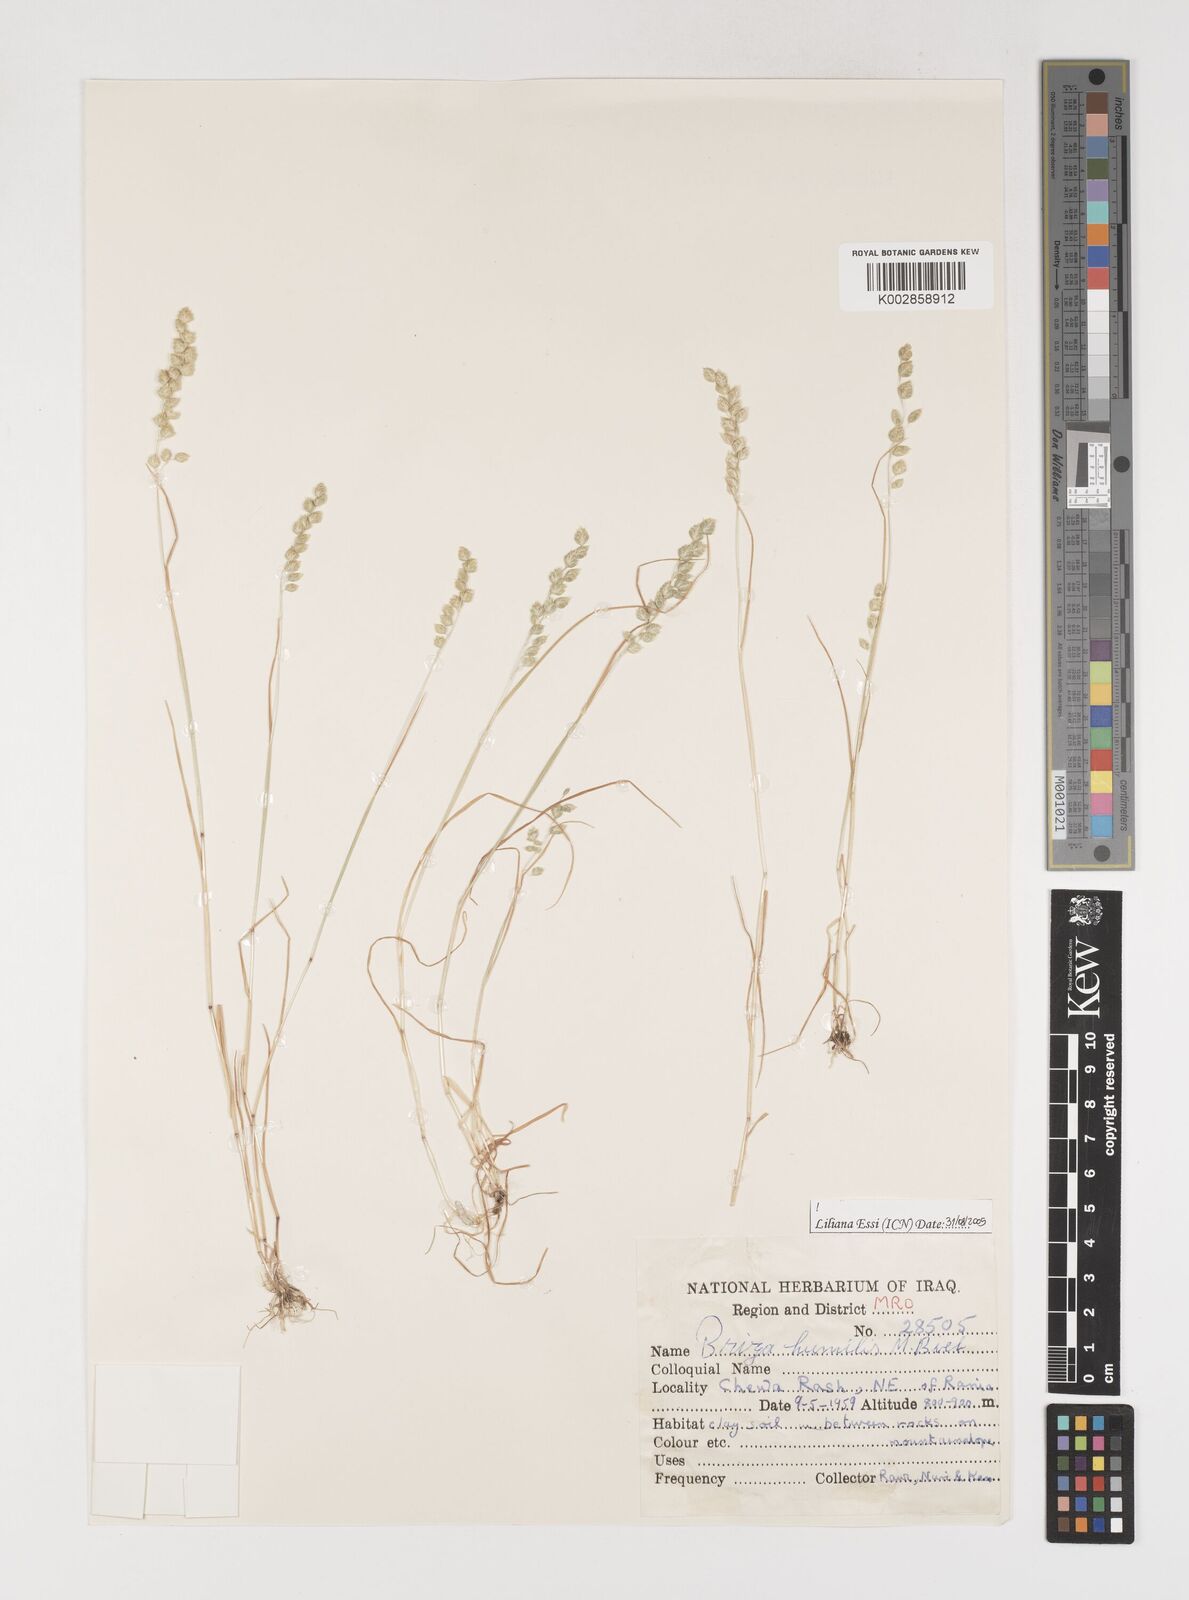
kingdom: Plantae
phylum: Tracheophyta
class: Liliopsida
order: Poales
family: Poaceae
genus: Briza
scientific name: Briza humilis
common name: Spiked quaking grass
